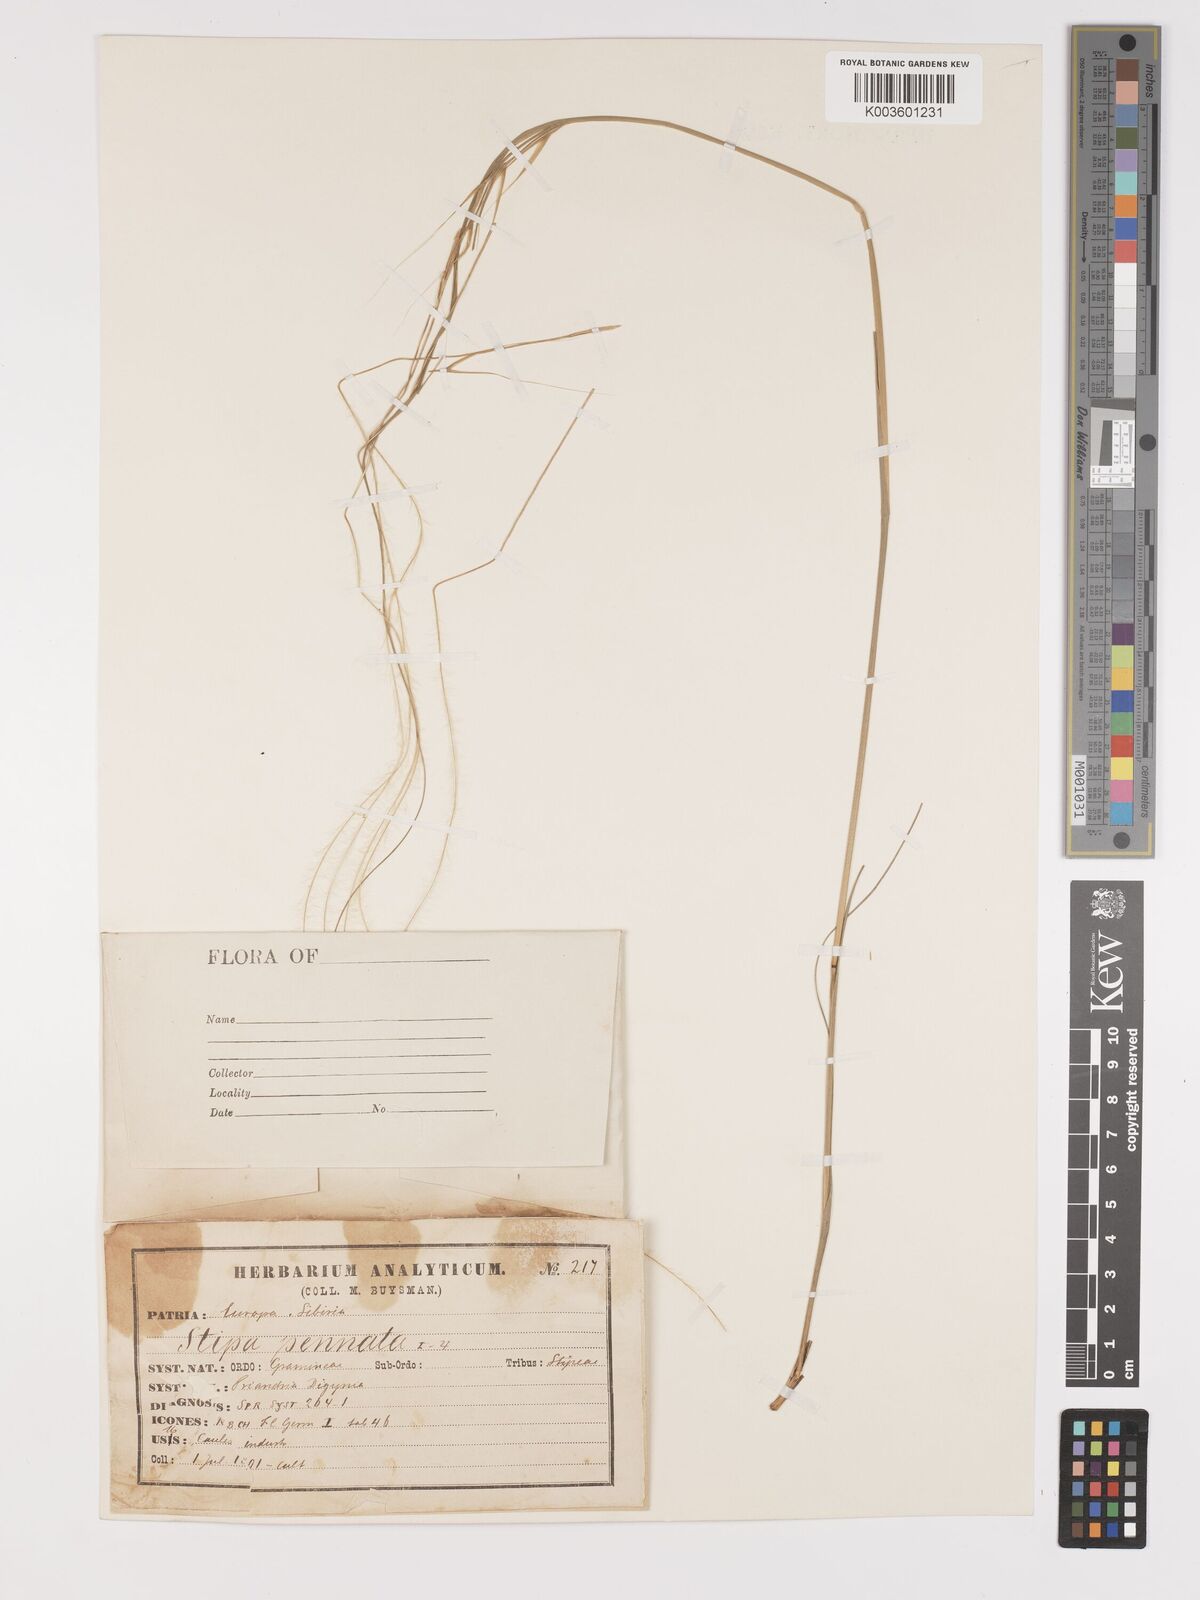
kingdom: Plantae
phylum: Tracheophyta
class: Liliopsida
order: Poales
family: Poaceae
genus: Stipa
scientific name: Stipa pennata
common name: European feather grass
